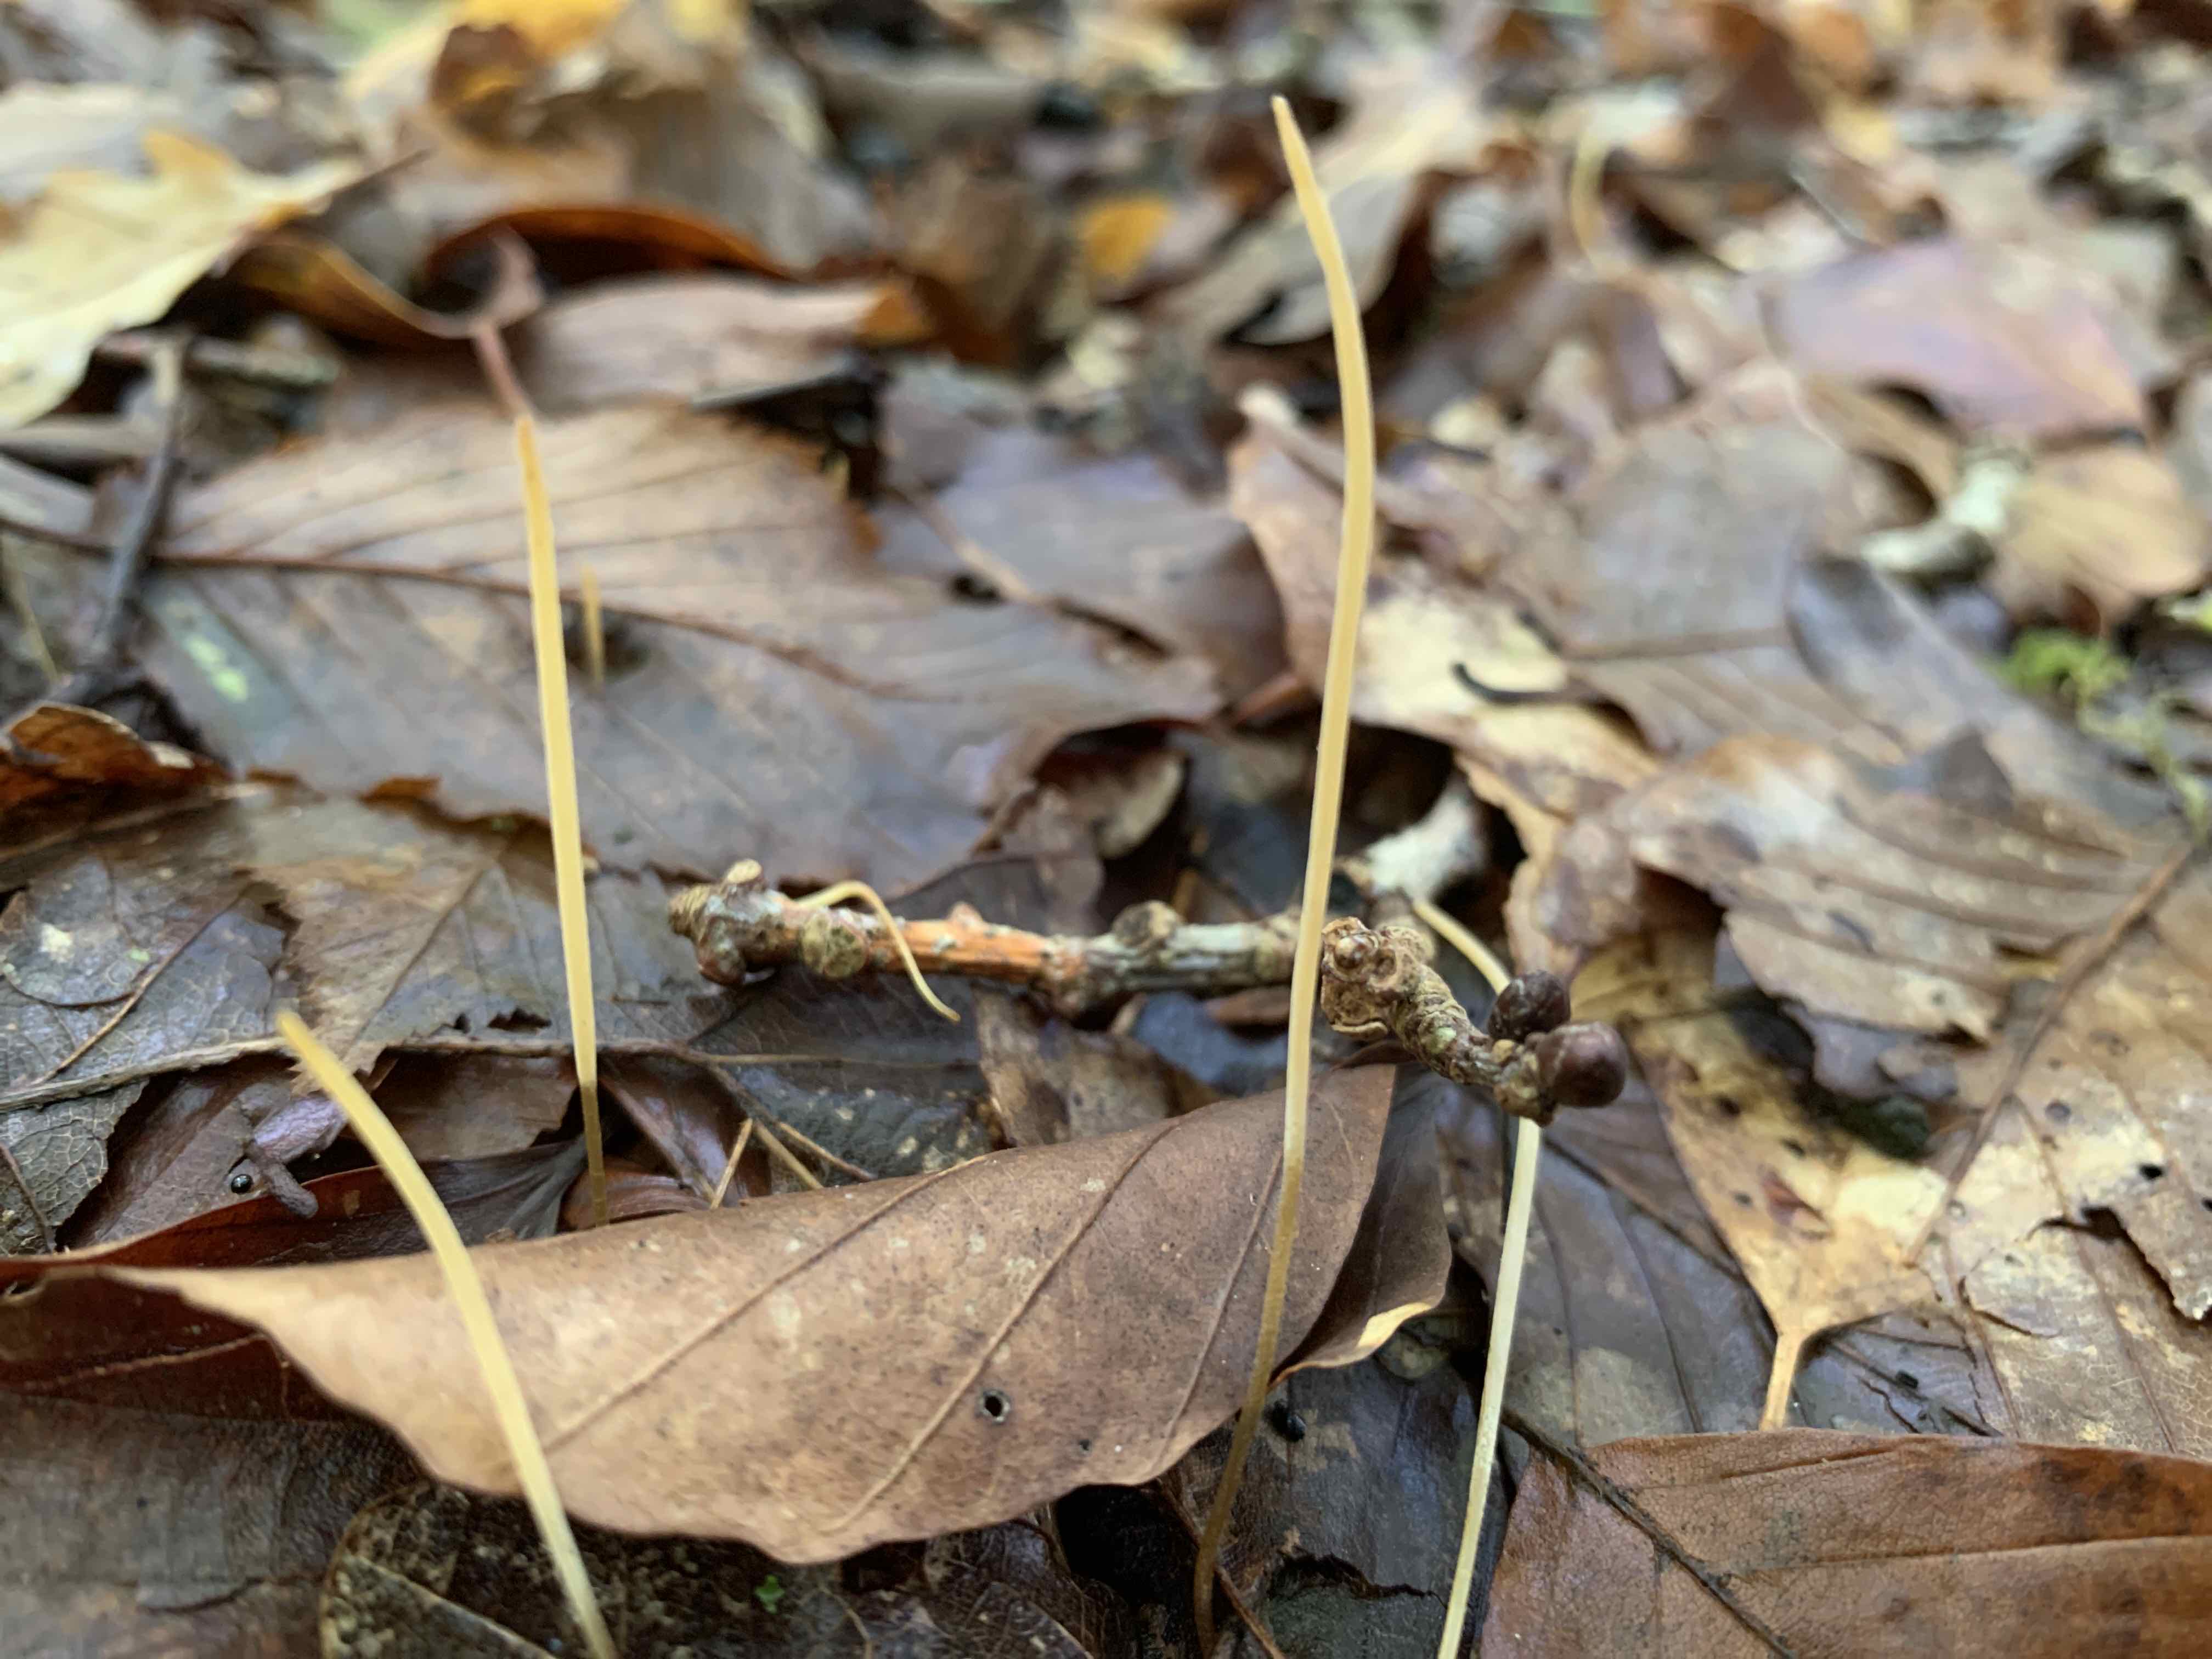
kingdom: Fungi
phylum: Basidiomycota
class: Agaricomycetes
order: Agaricales
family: Typhulaceae
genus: Typhula
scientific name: Typhula juncea
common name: trådagtig rørkølle
